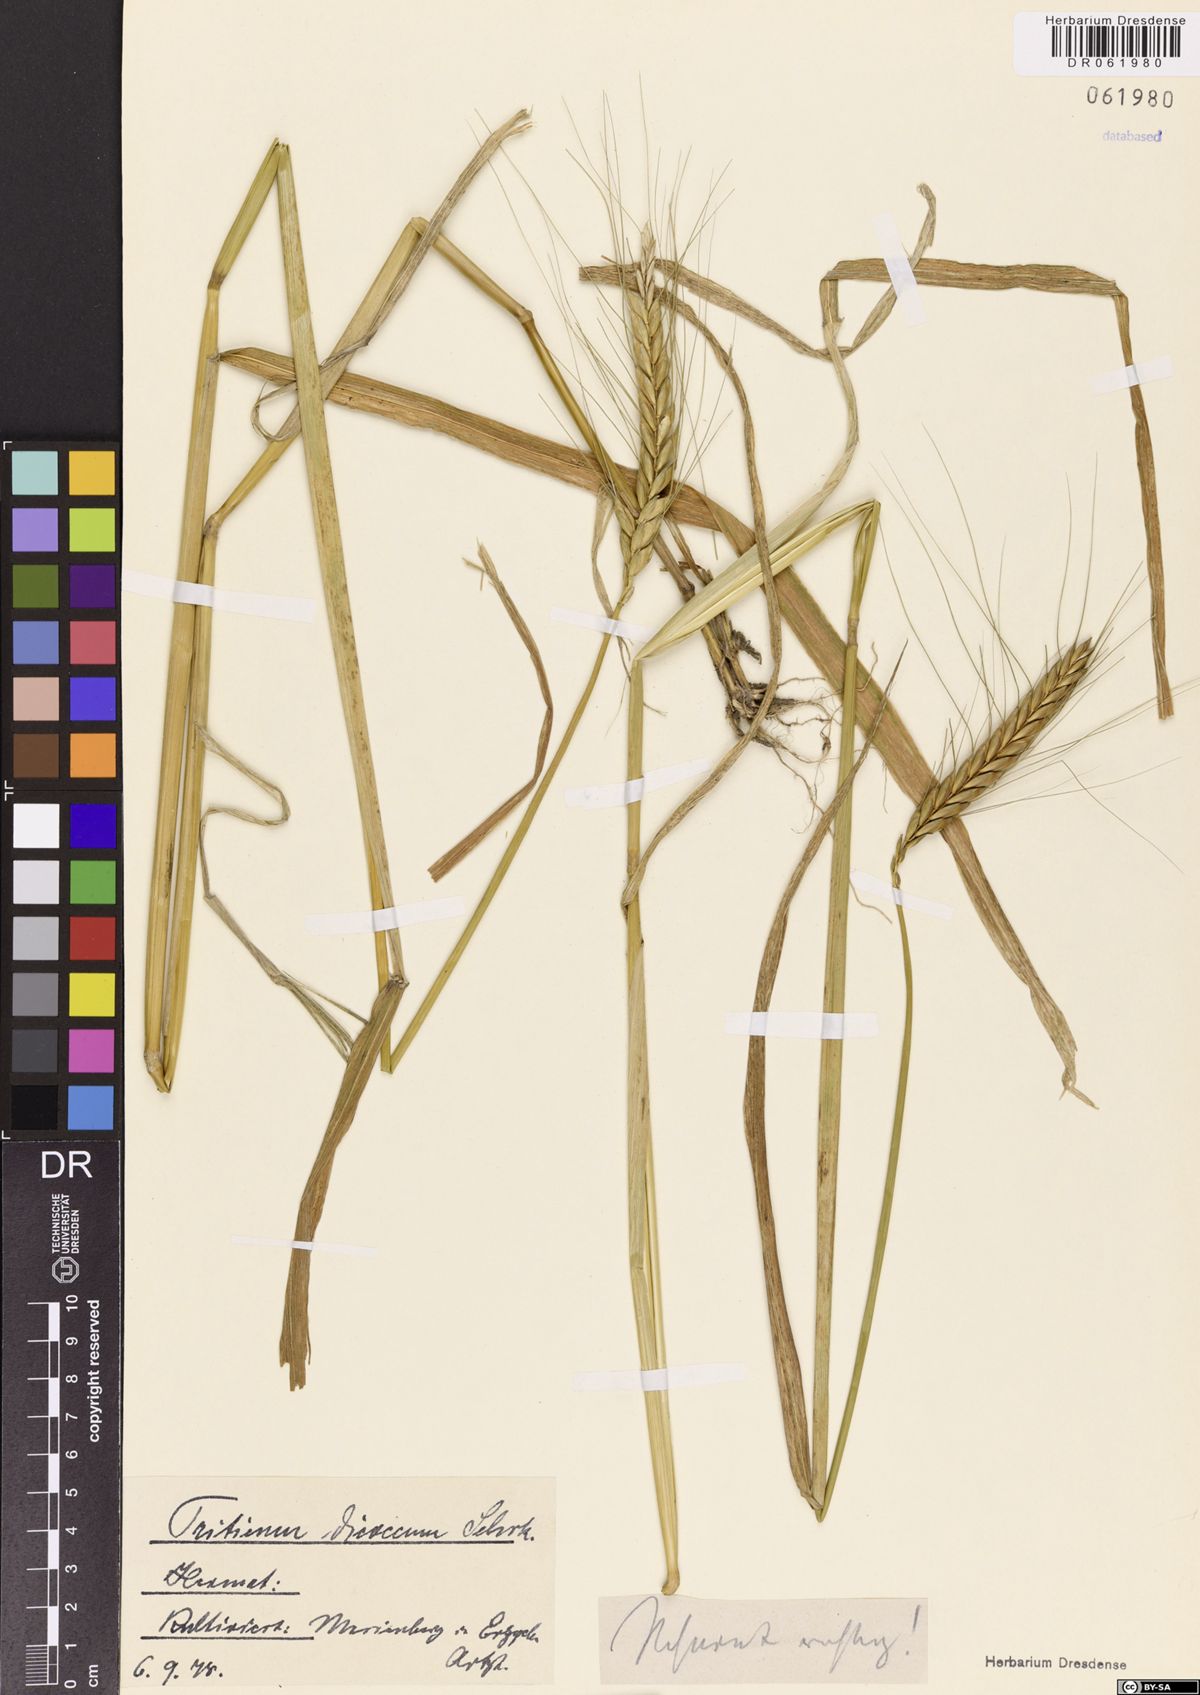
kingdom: Plantae
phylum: Tracheophyta
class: Liliopsida
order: Poales
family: Poaceae
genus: Triticum
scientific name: Triticum turgidum
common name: Rivet wheat
